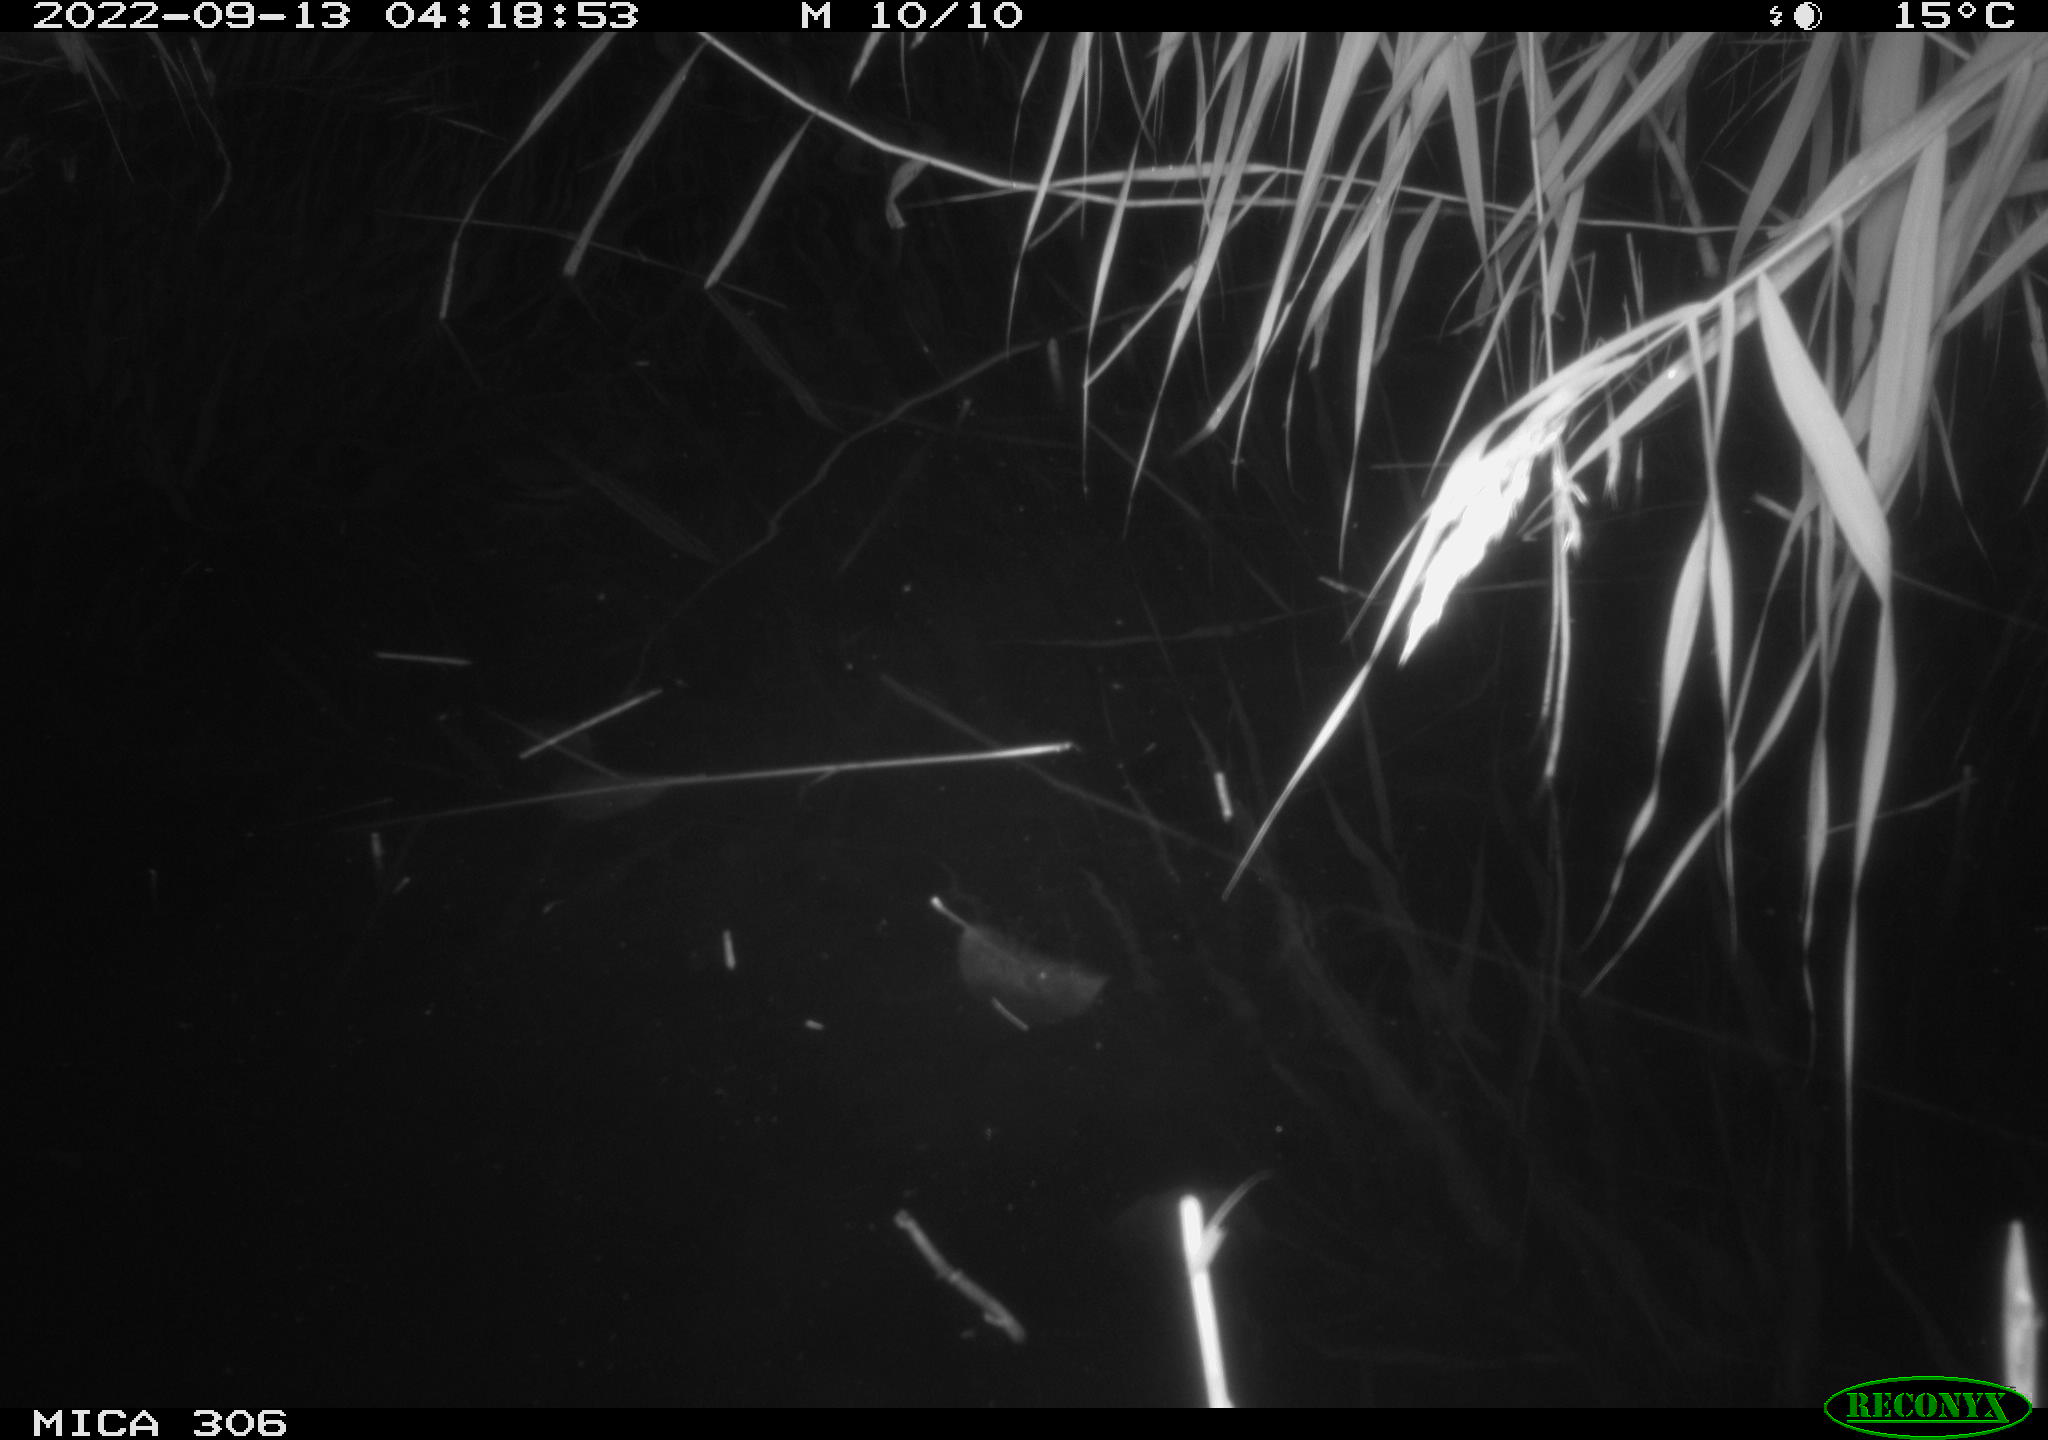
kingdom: Animalia
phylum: Chordata
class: Mammalia
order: Rodentia
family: Muridae
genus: Rattus
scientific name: Rattus norvegicus
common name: Brown rat
